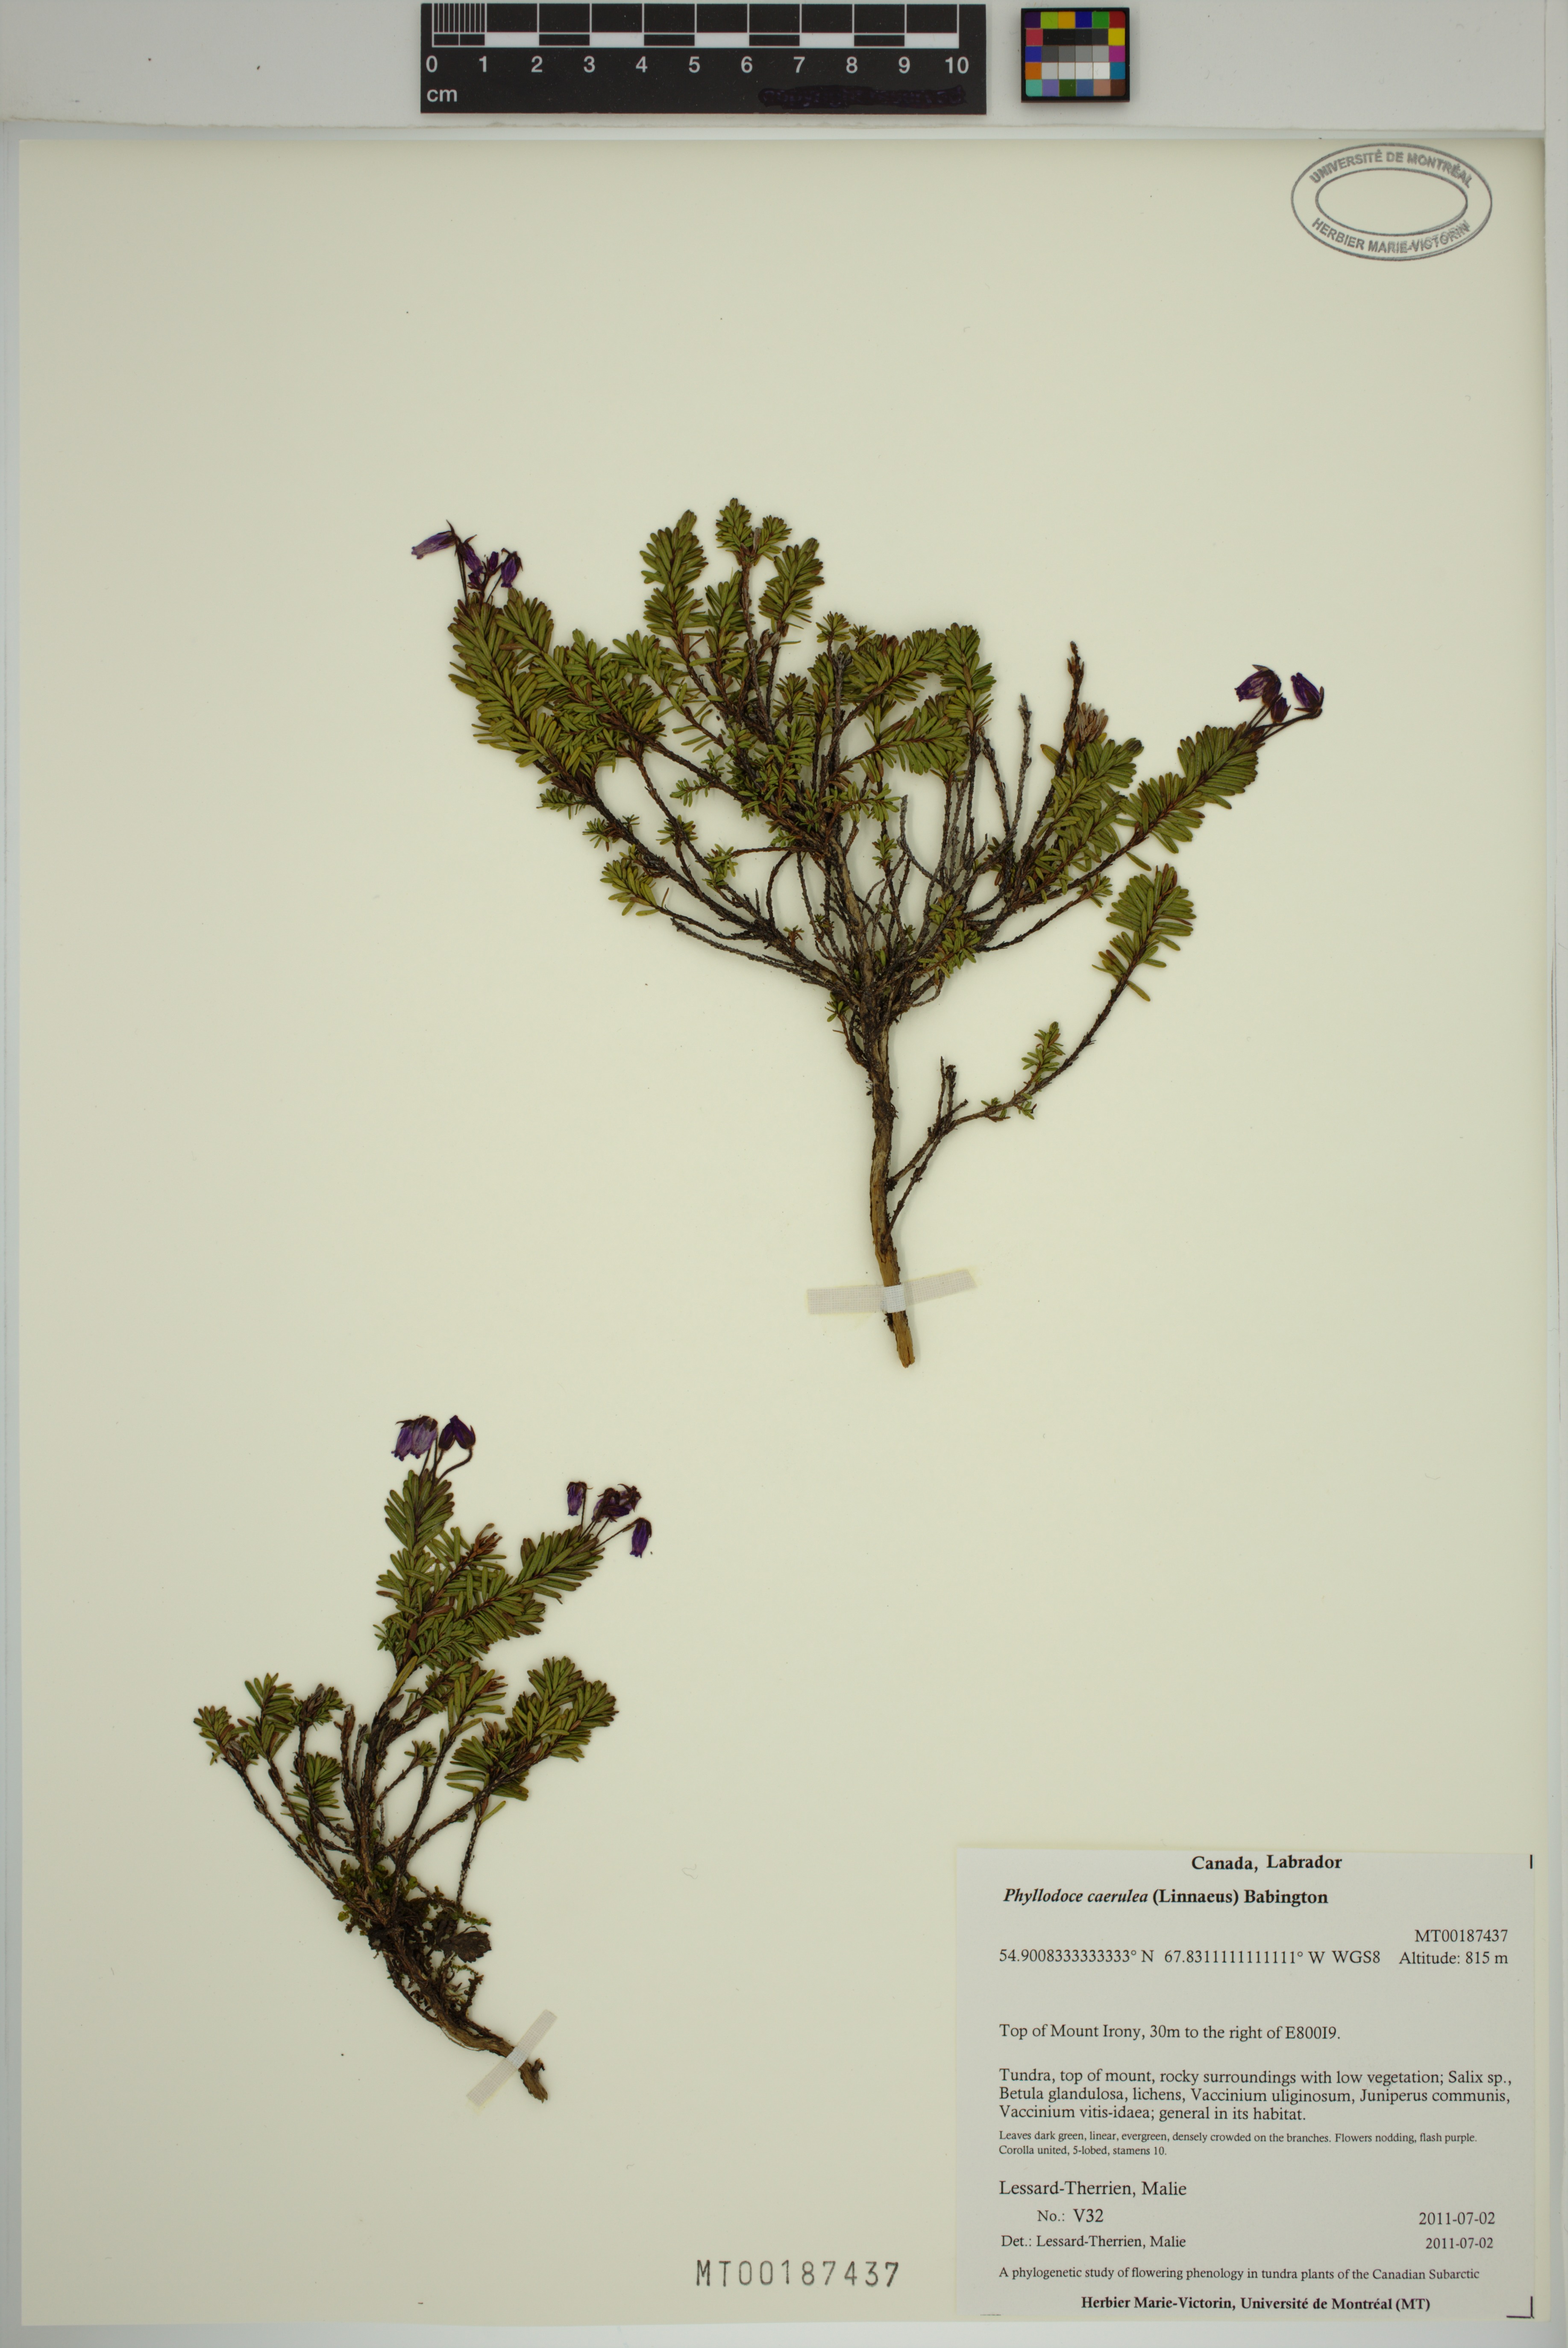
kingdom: Plantae
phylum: Tracheophyta
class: Magnoliopsida
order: Ericales
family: Ericaceae
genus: Phyllodoce
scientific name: Phyllodoce caerulea
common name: Blue heath
